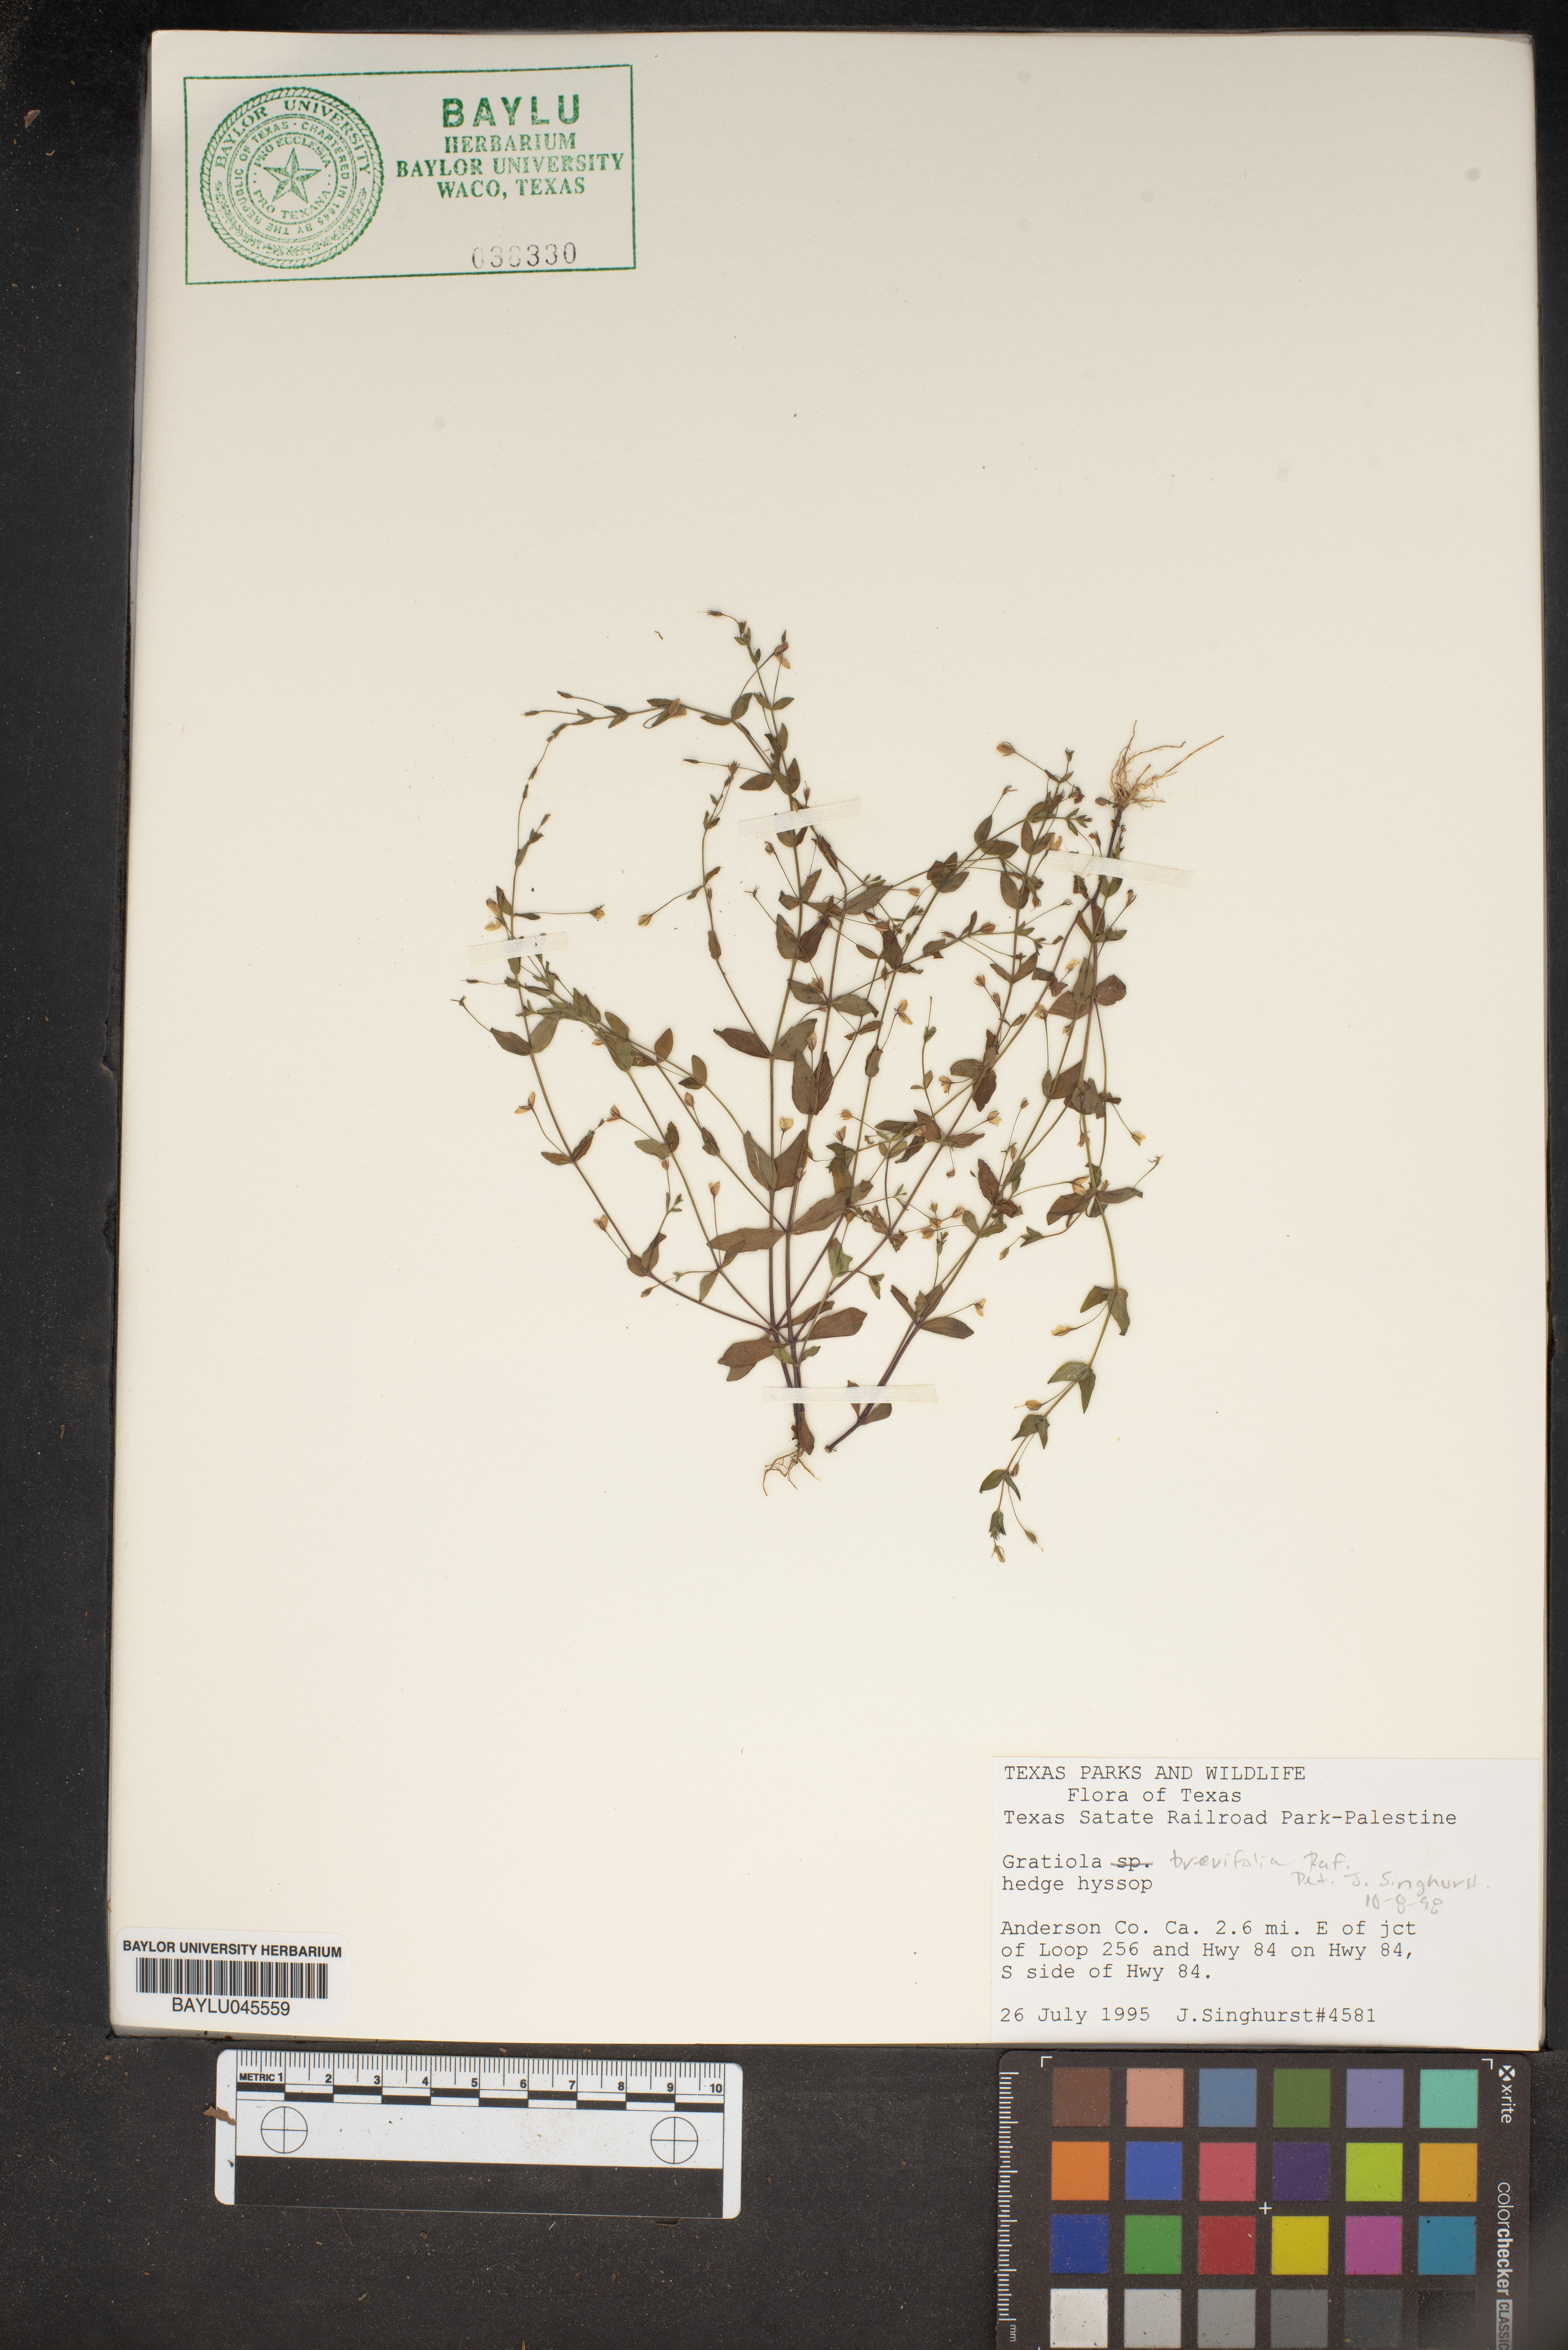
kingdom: Plantae
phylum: Tracheophyta
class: Magnoliopsida
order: Lamiales
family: Plantaginaceae
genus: Gratiola
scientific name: Gratiola brevifolia
